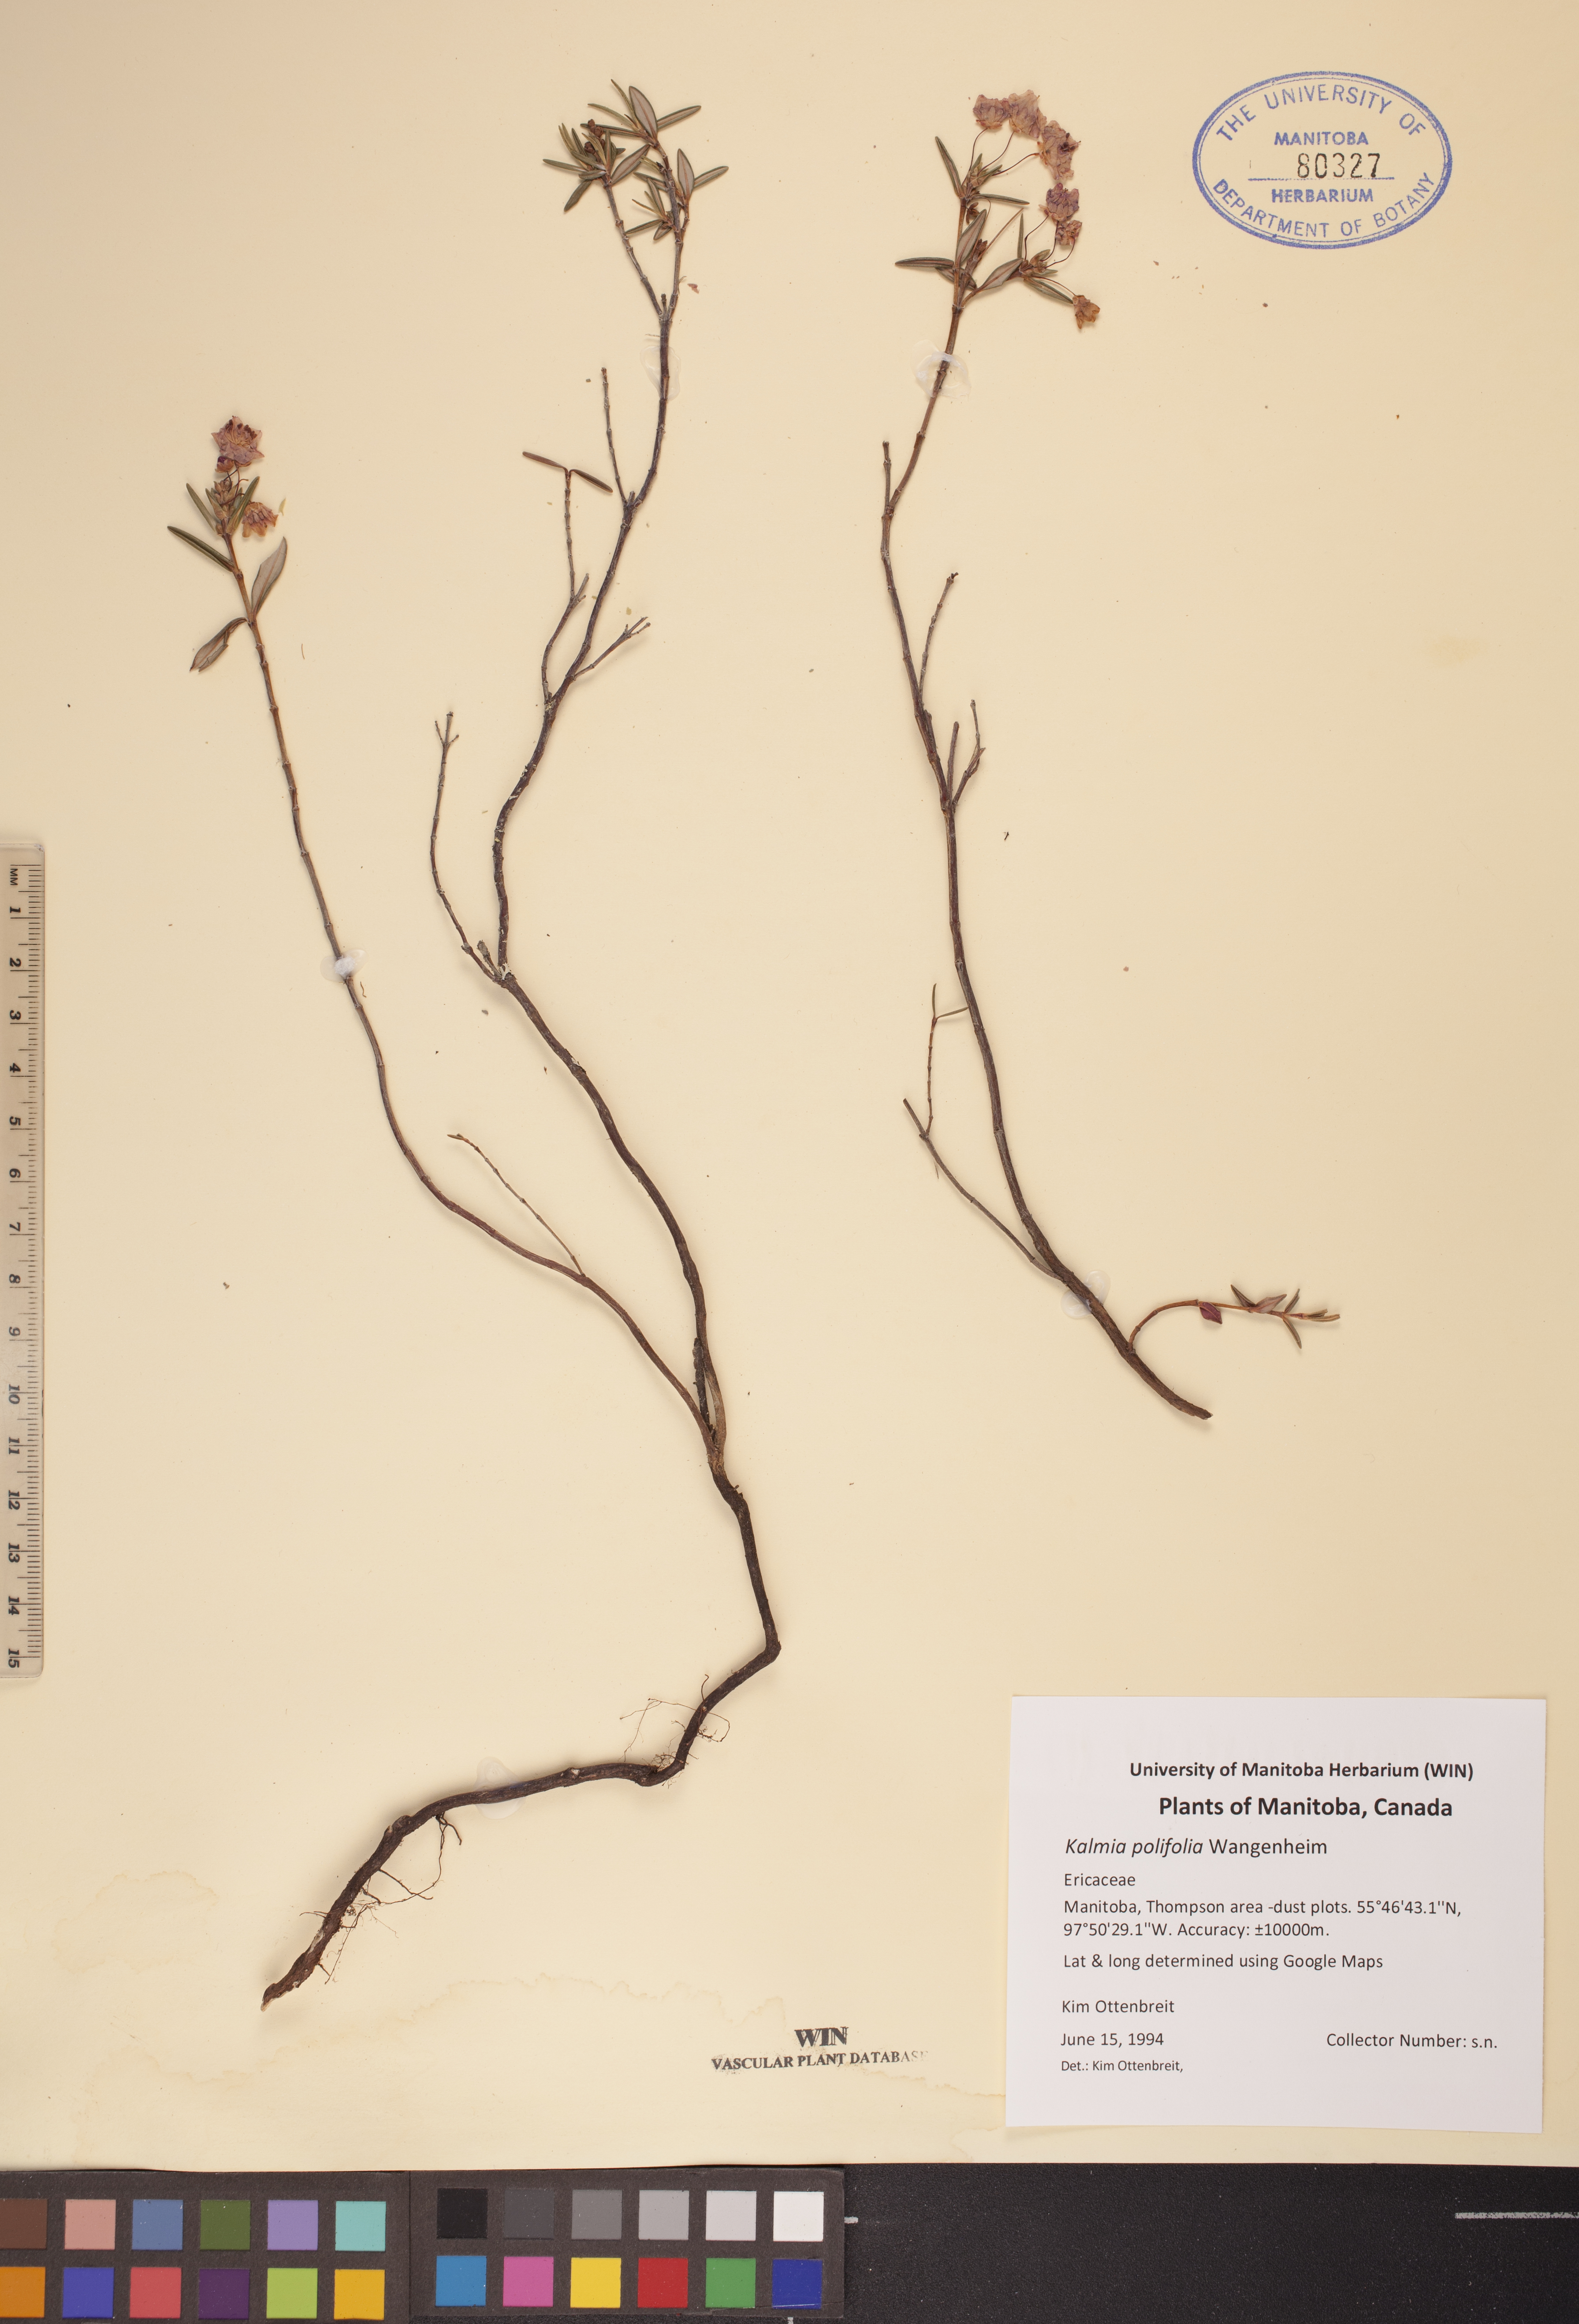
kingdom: Plantae
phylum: Tracheophyta
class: Magnoliopsida
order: Ericales
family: Ericaceae
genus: Kalmia
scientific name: Kalmia polifolia
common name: Bog-laurel
